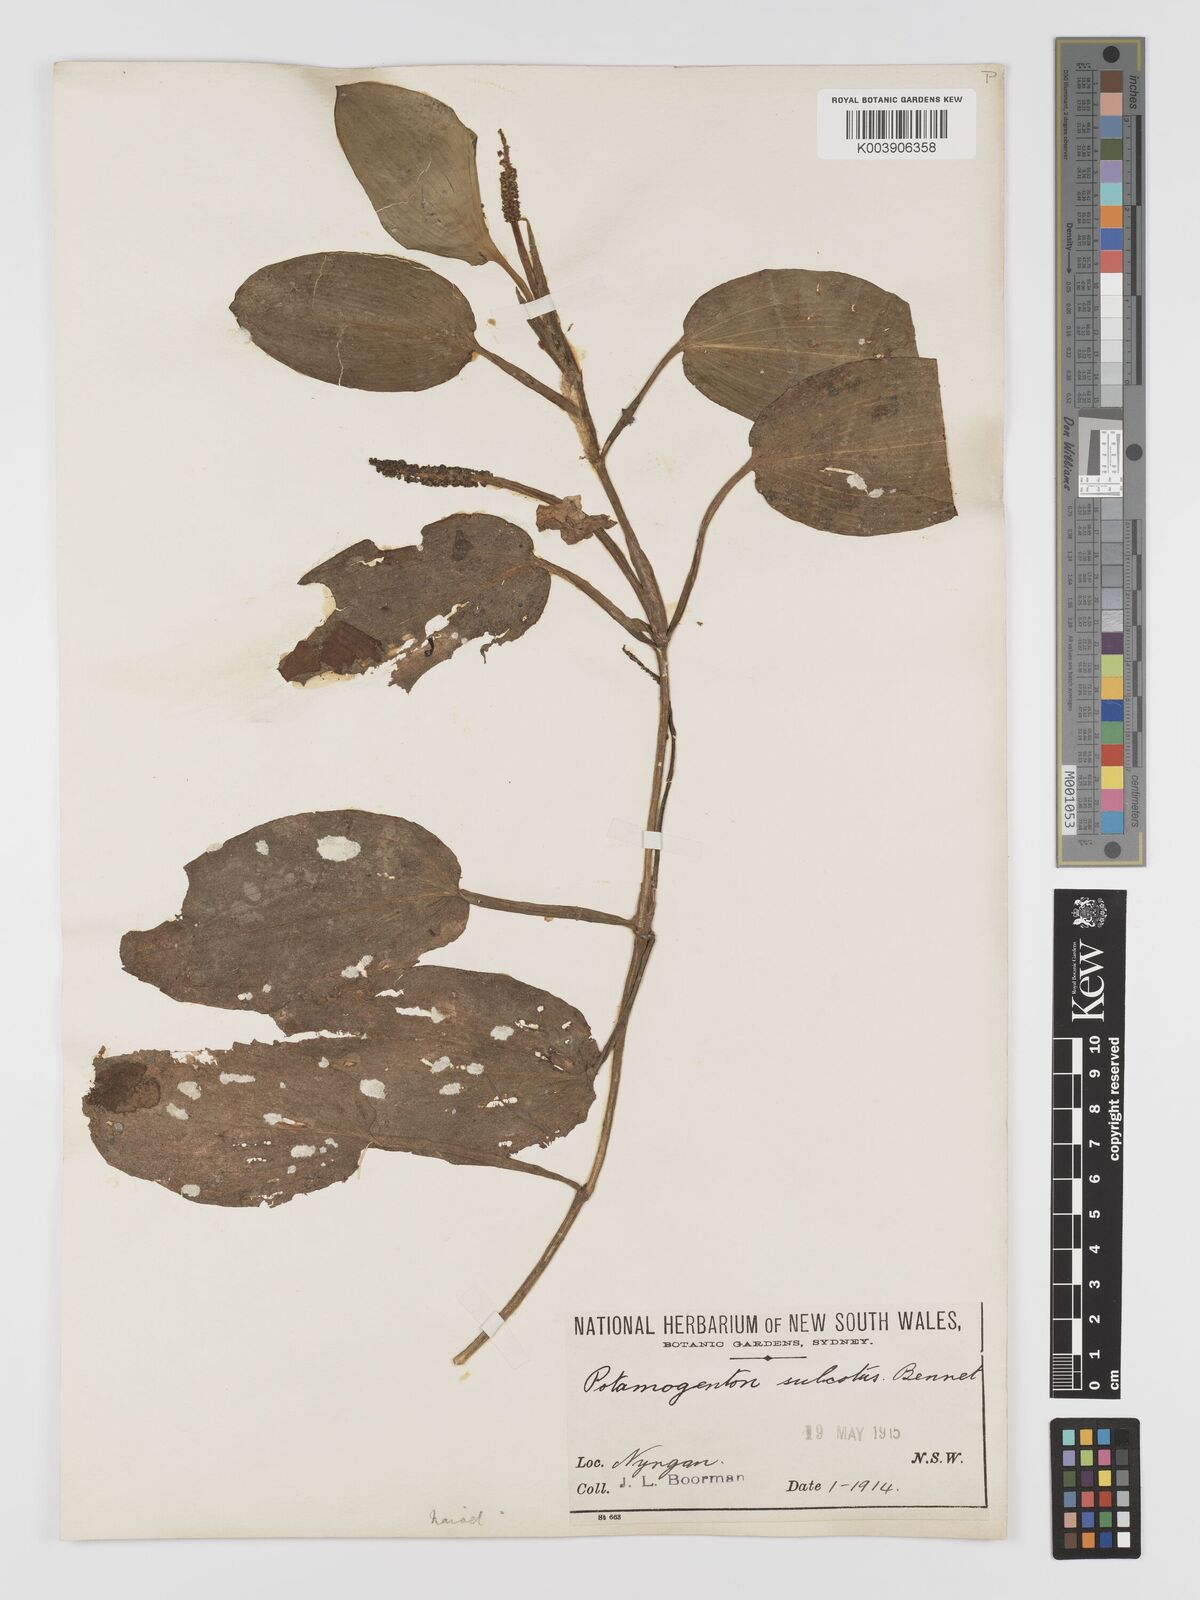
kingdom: Plantae
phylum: Tracheophyta
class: Liliopsida
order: Alismatales
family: Potamogetonaceae
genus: Potamogeton
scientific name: Potamogeton sulcatus
